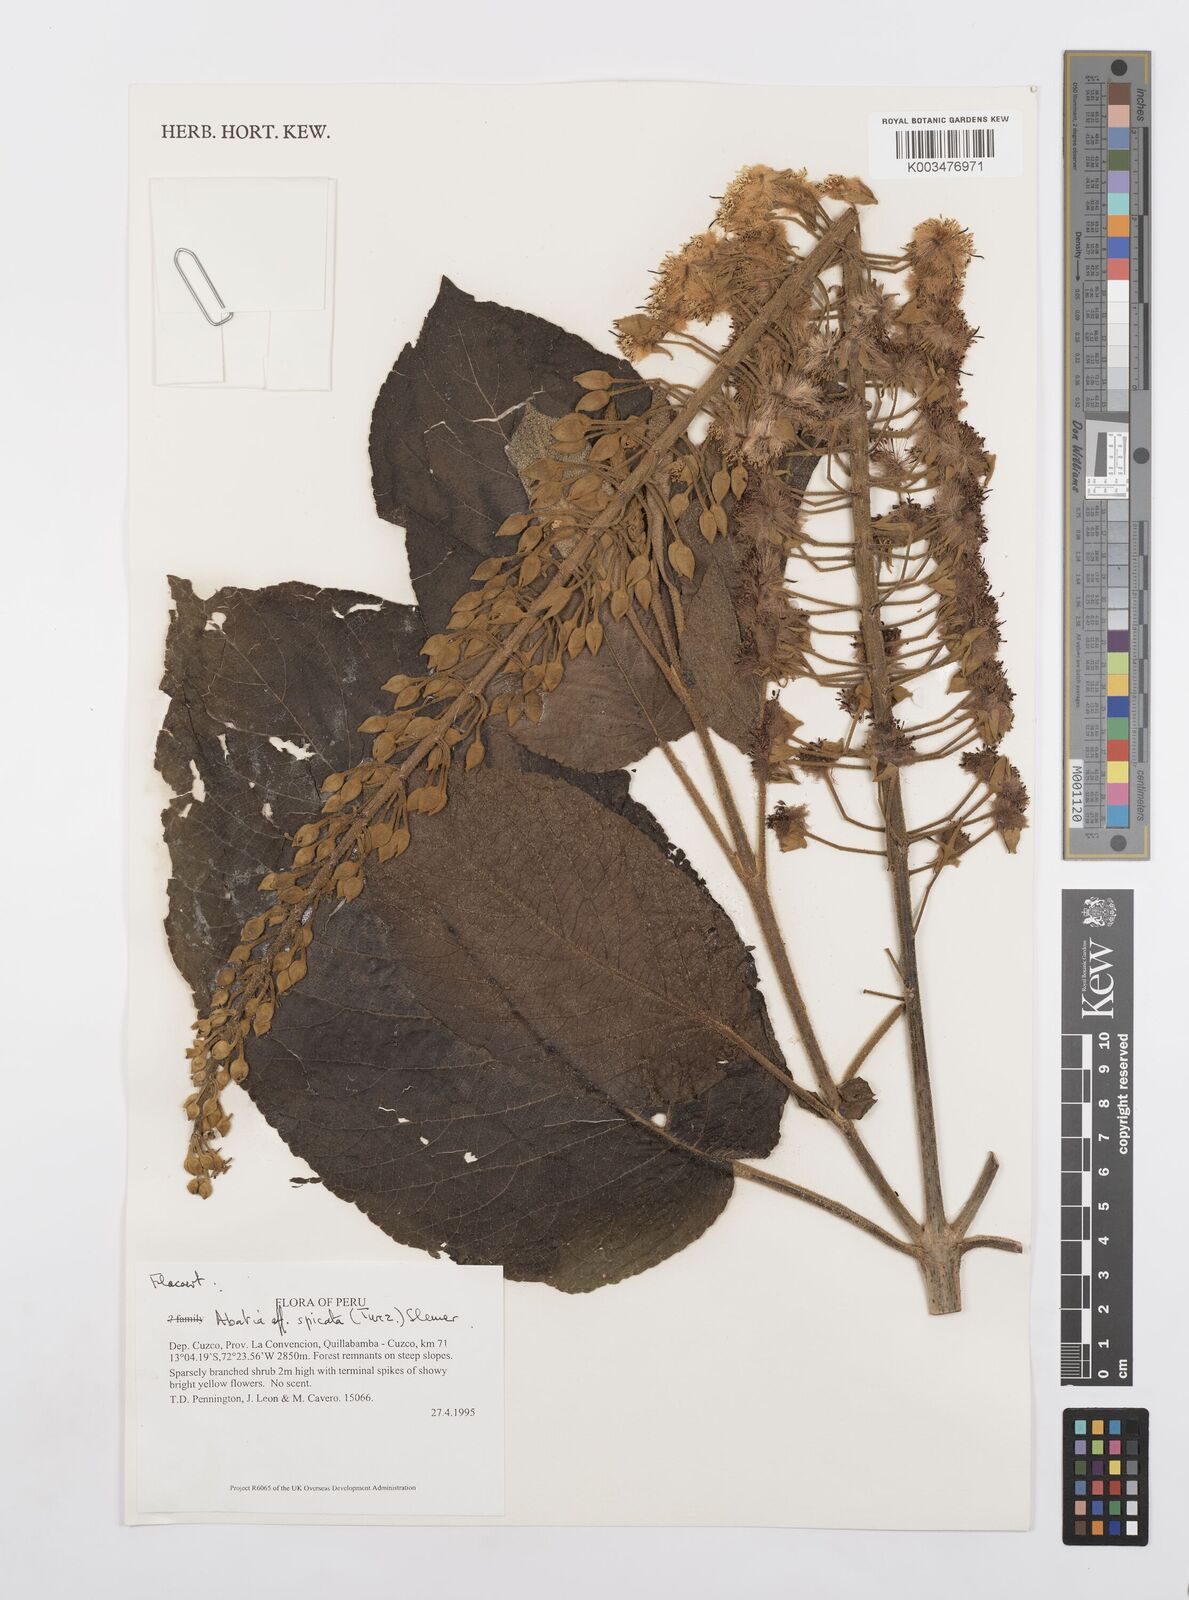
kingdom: Plantae
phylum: Tracheophyta
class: Magnoliopsida
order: Malpighiales
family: Salicaceae
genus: Abatia
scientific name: Abatia spicata
